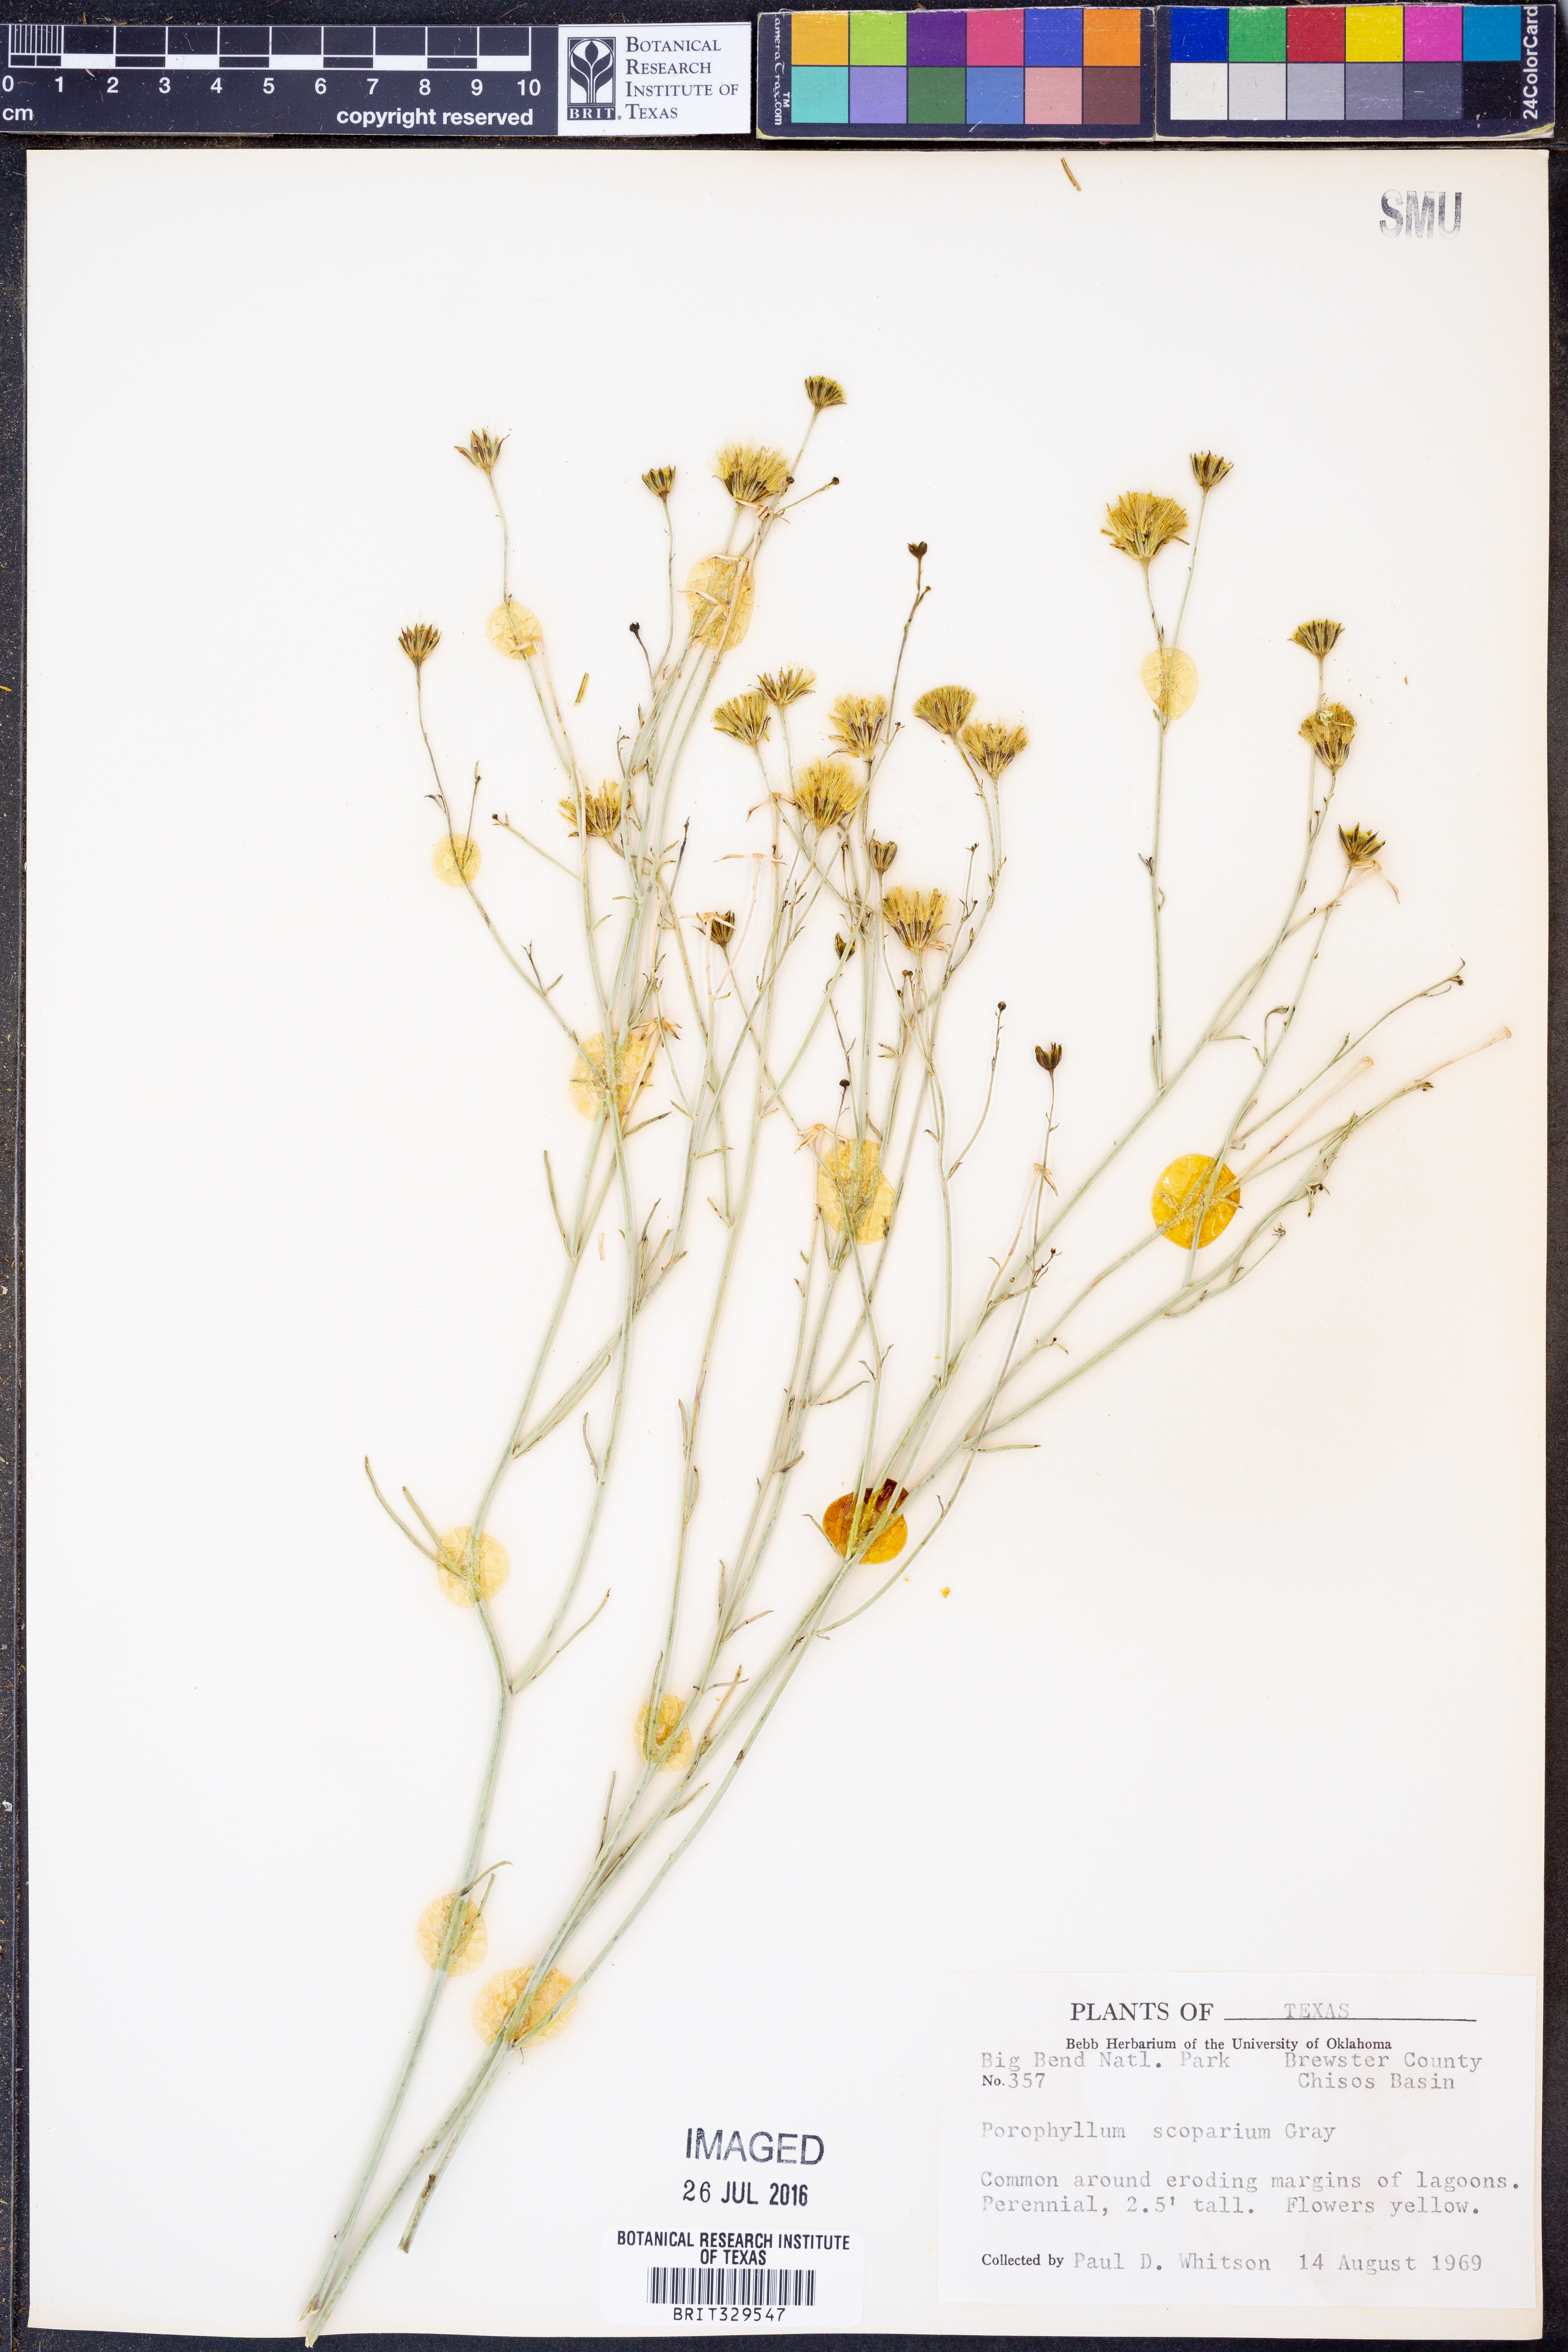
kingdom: Plantae
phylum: Tracheophyta
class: Magnoliopsida
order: Asterales
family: Asteraceae
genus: Porophyllum
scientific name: Porophyllum scoparium
